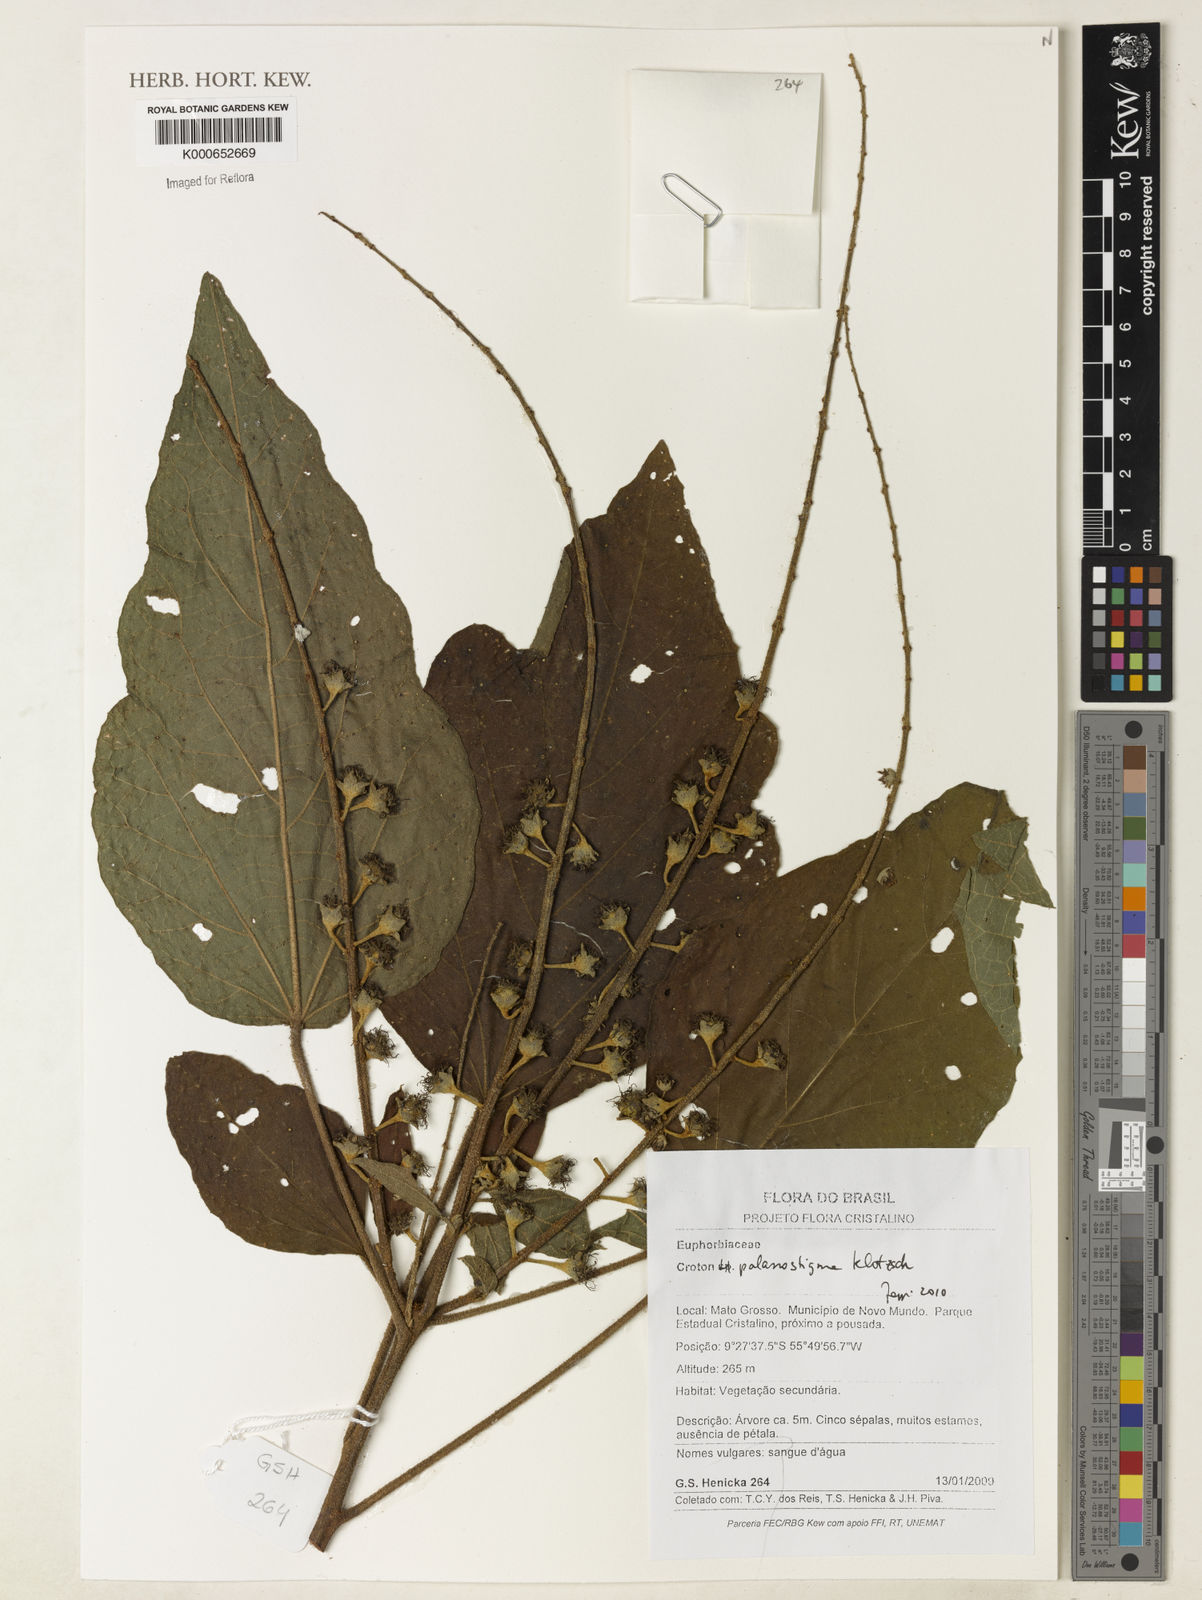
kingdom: Plantae
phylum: Tracheophyta
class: Magnoliopsida
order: Malpighiales
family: Euphorbiaceae
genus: Croton
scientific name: Croton palanostigma
